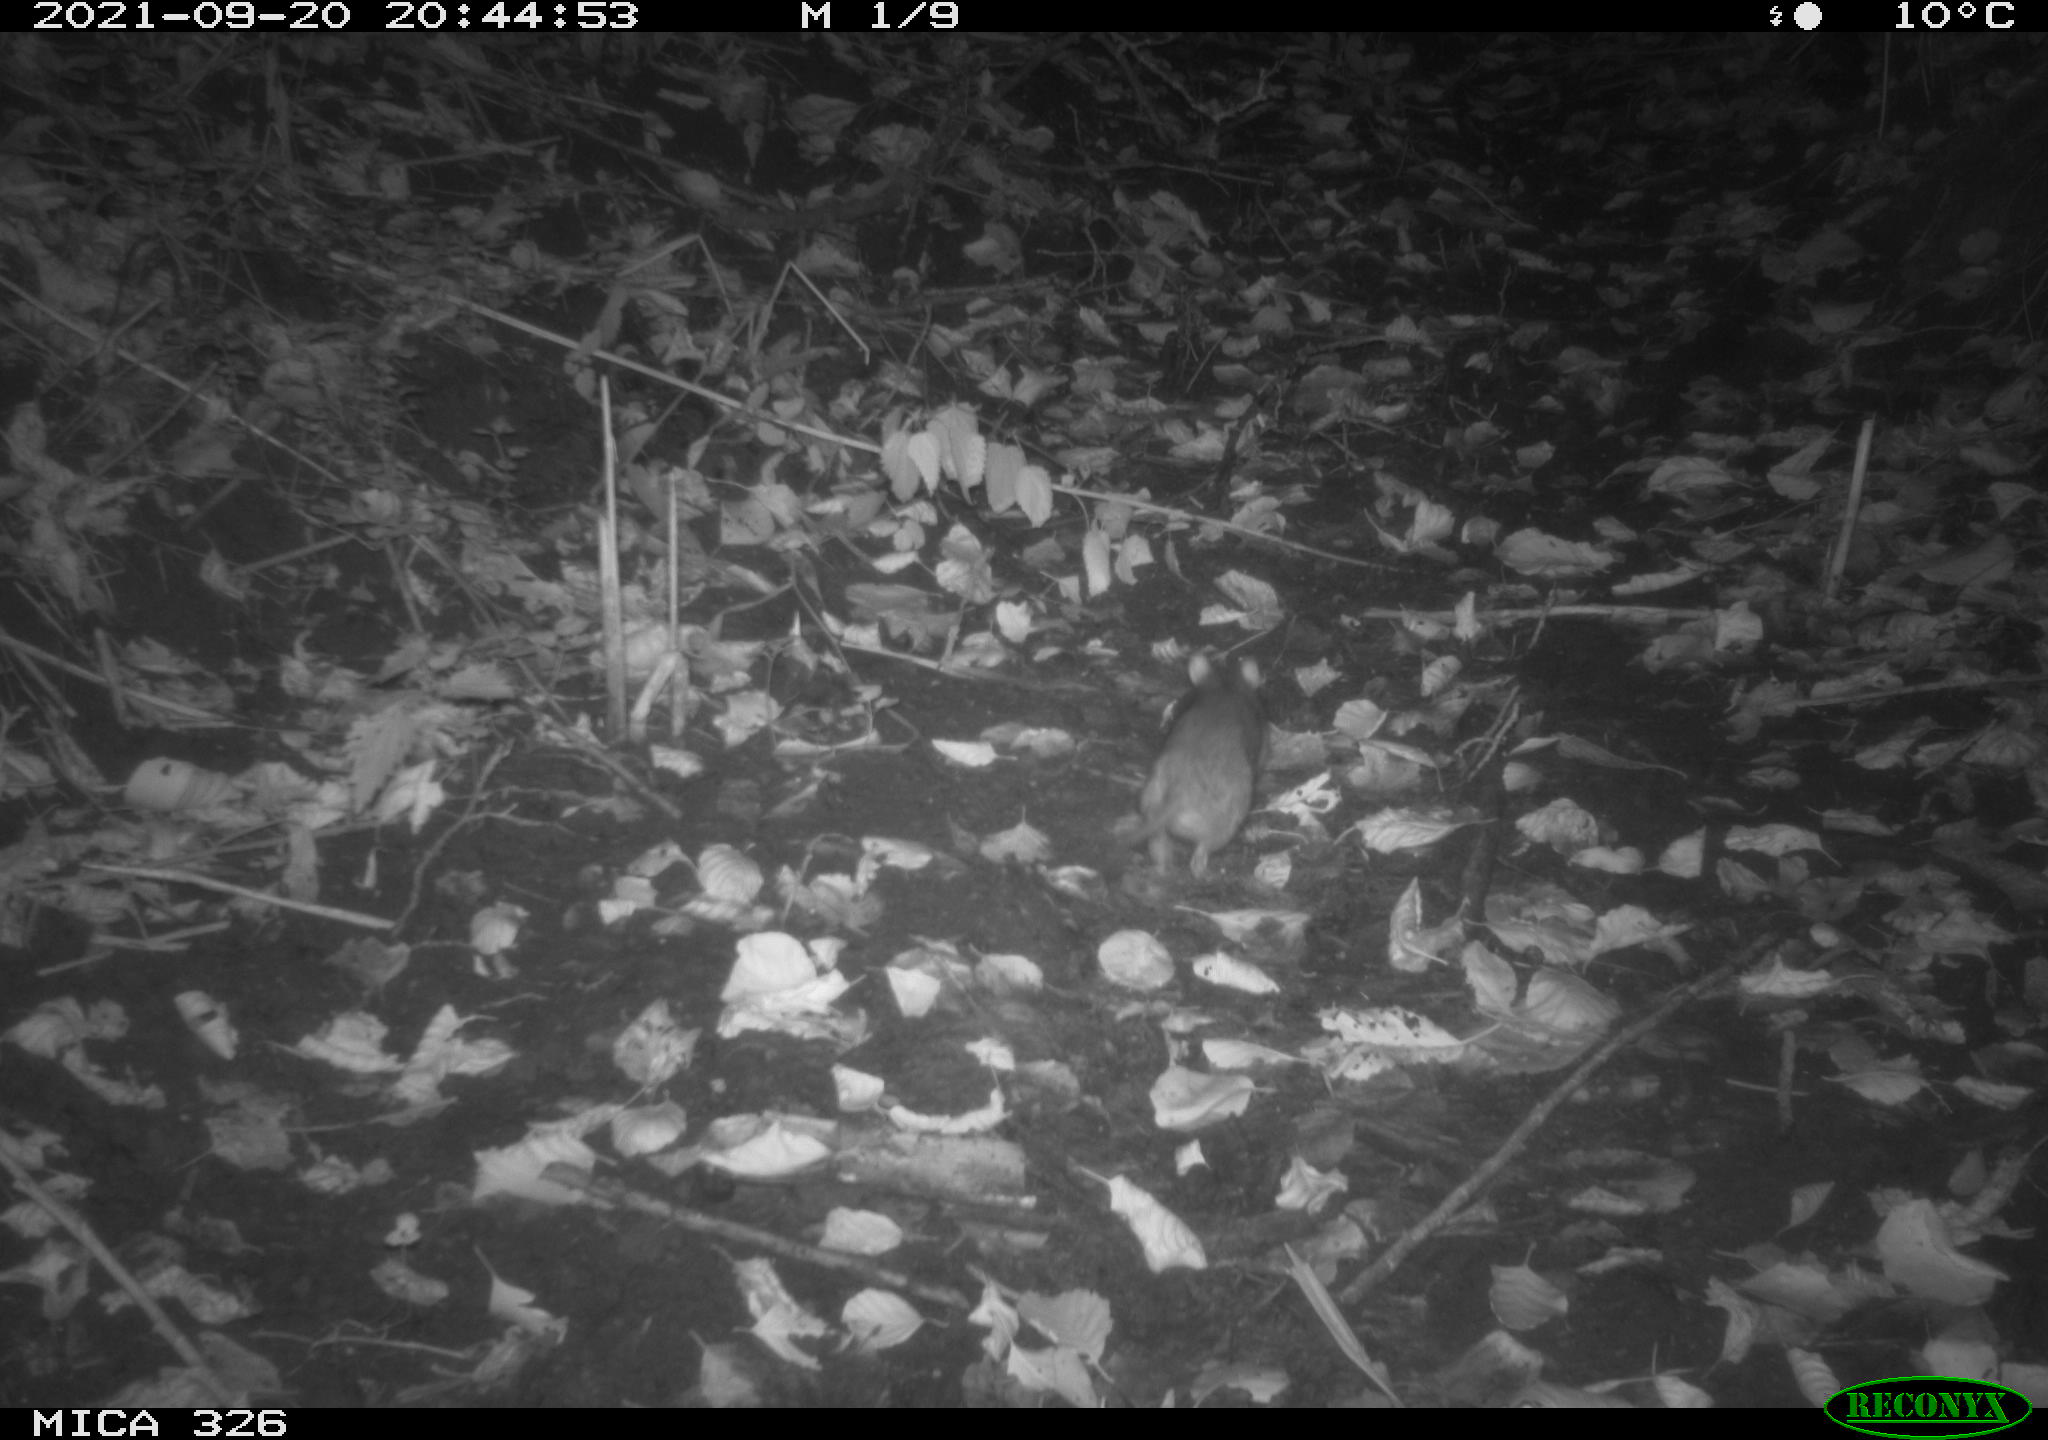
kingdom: Animalia
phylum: Chordata
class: Mammalia
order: Rodentia
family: Muridae
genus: Rattus
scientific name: Rattus norvegicus
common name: Brown rat
